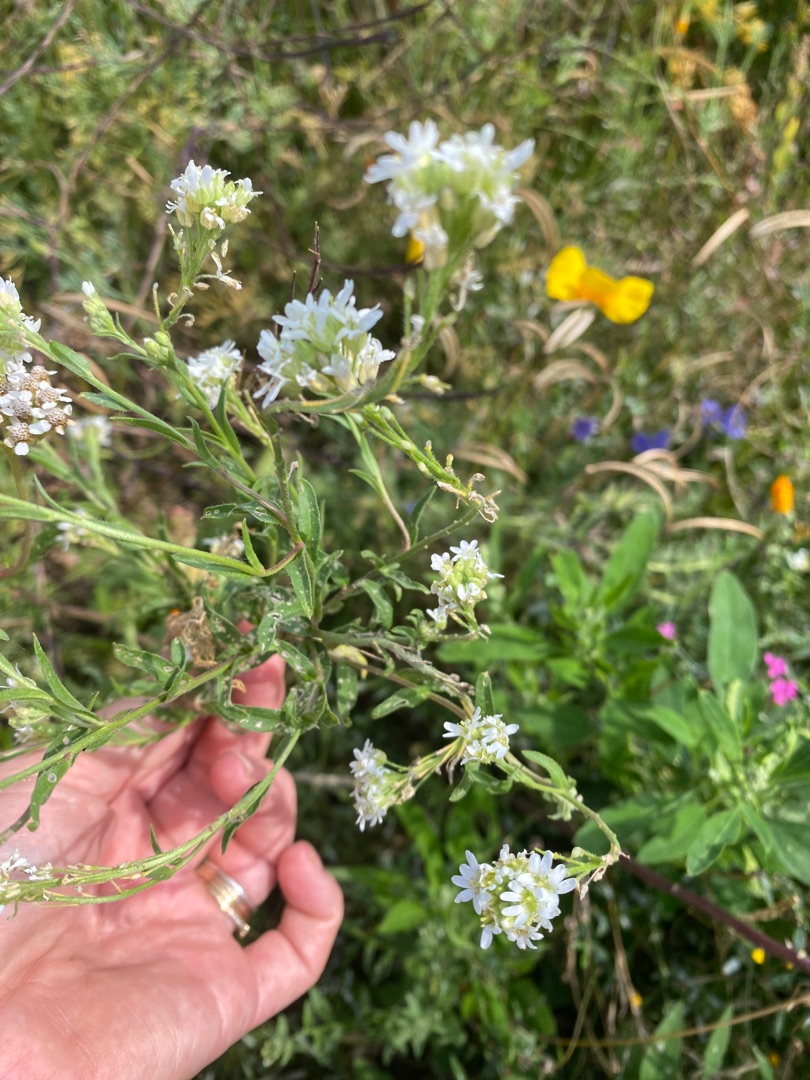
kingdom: Plantae
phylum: Tracheophyta
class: Magnoliopsida
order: Brassicales
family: Brassicaceae
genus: Berteroa
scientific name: Berteroa incana
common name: Kløvplade
